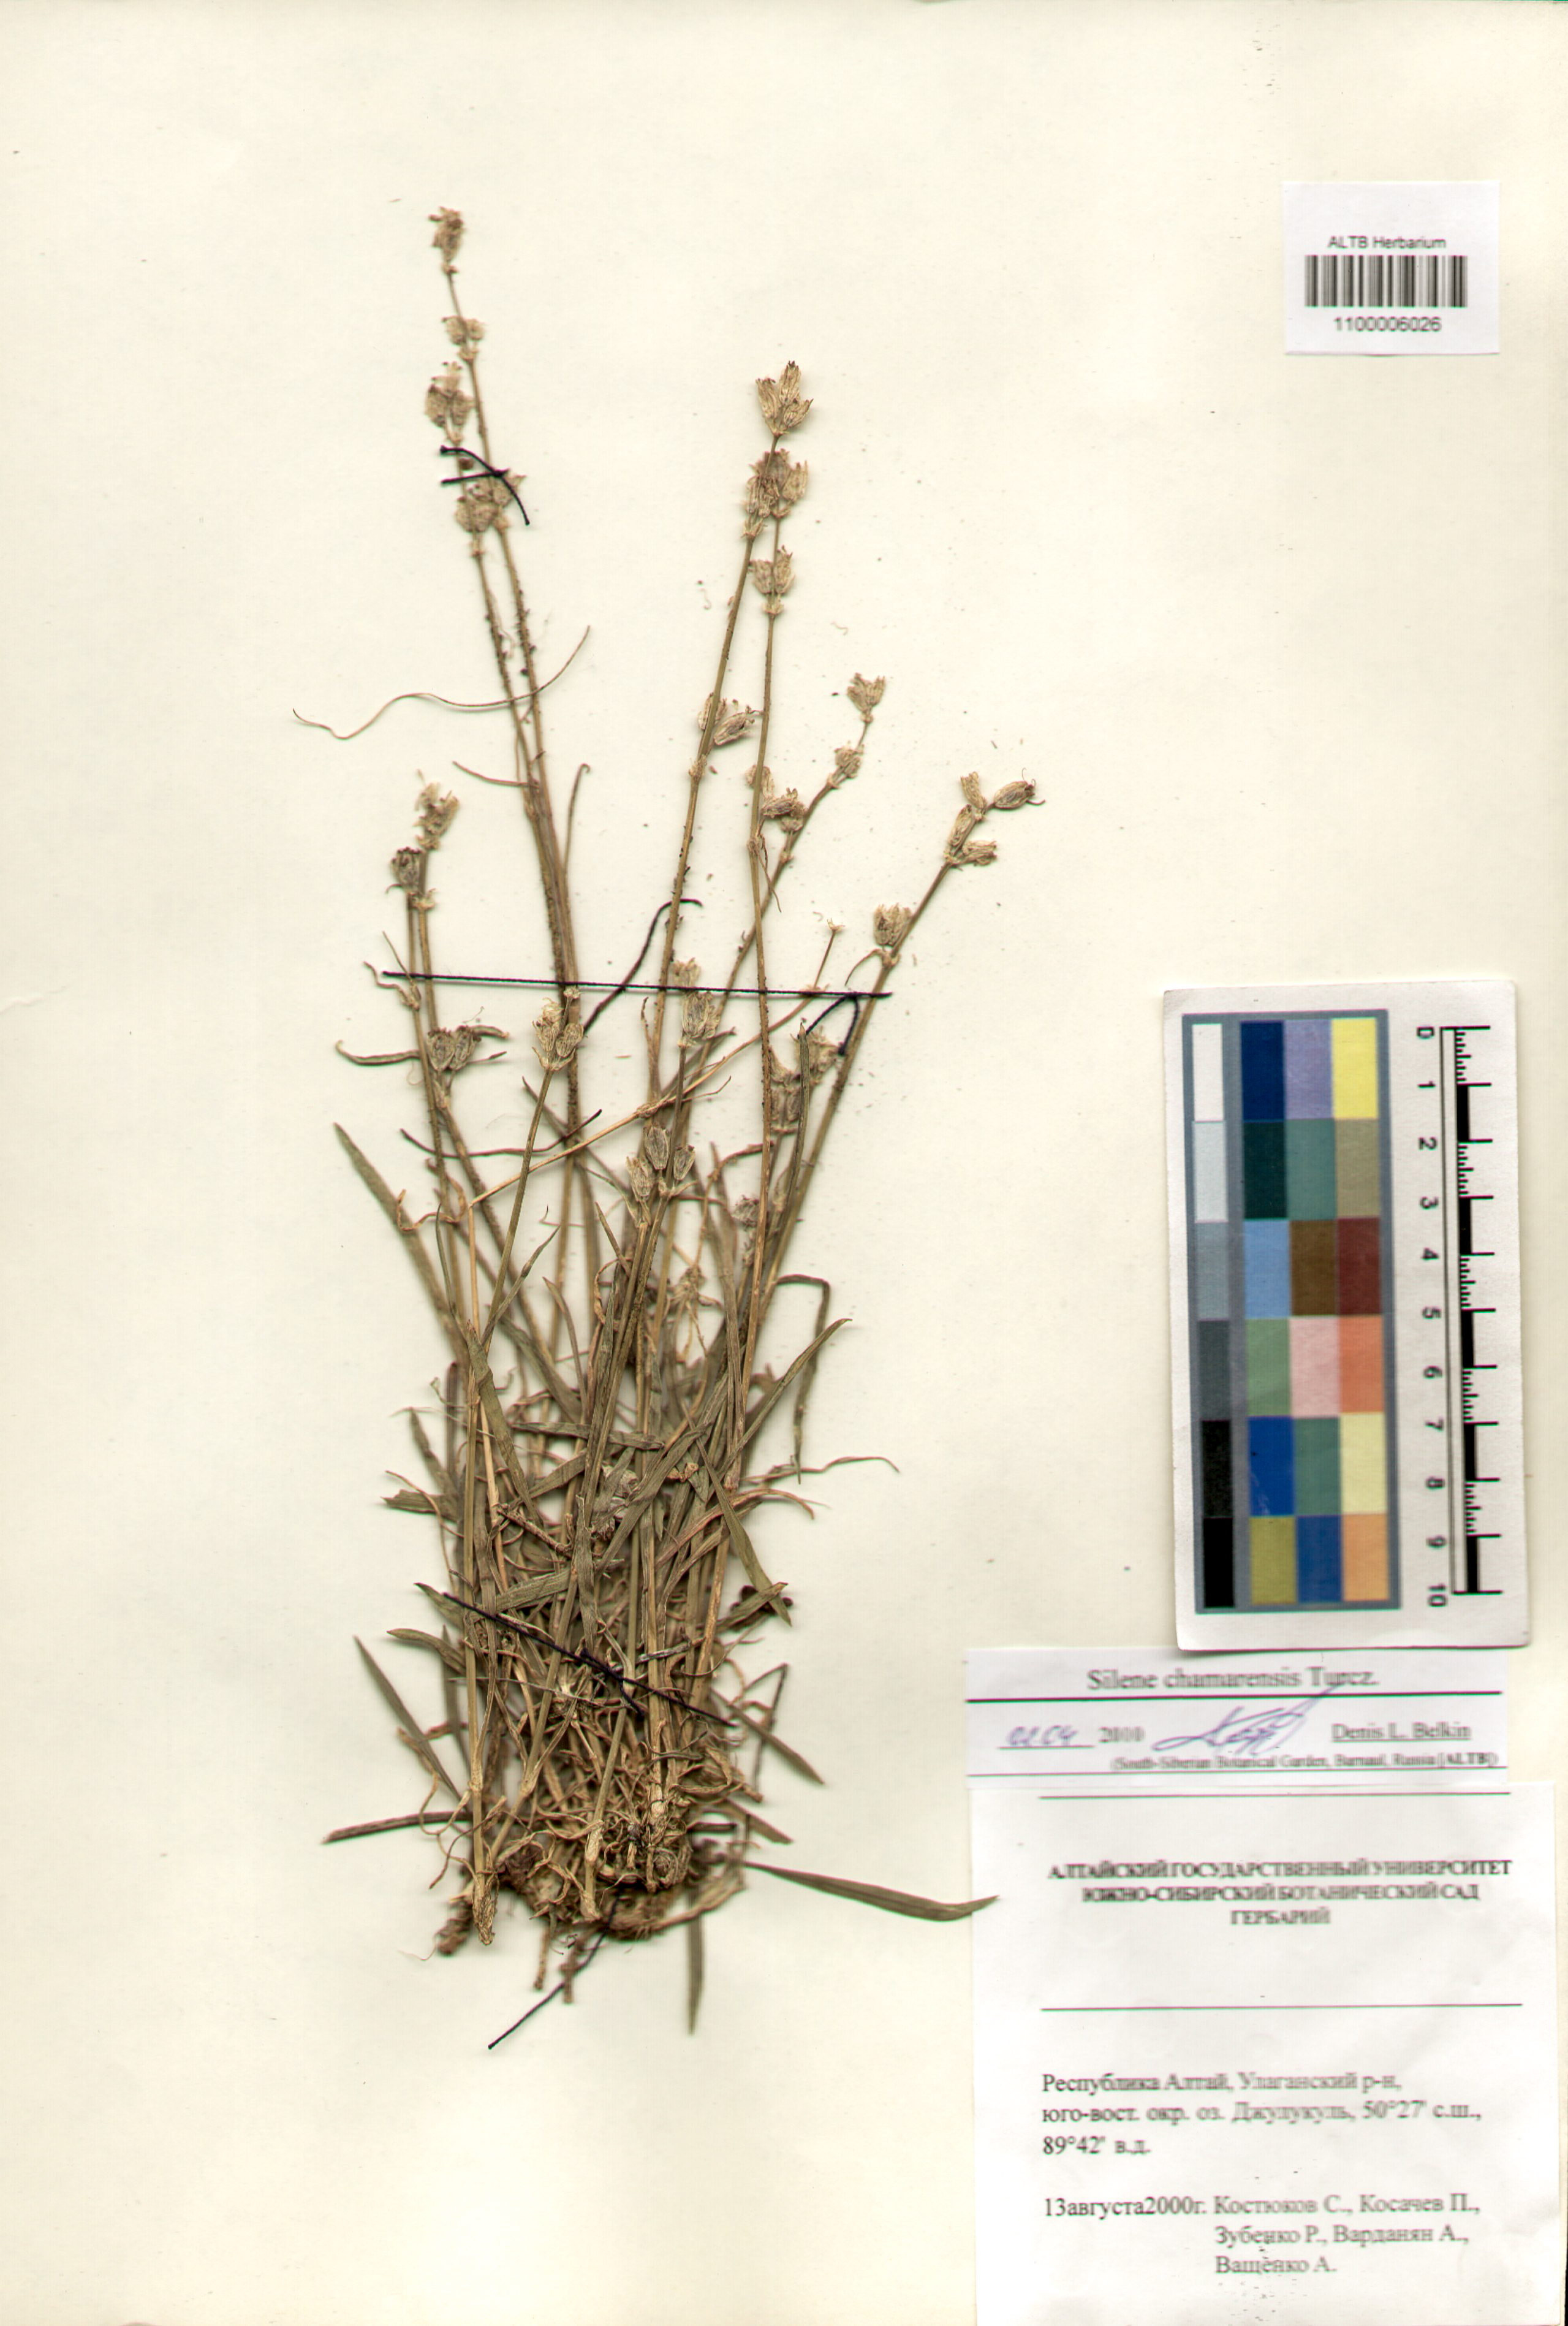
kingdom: Plantae
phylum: Tracheophyta
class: Magnoliopsida
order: Caryophyllales
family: Caryophyllaceae
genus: Silene
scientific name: Silene chamarensis
